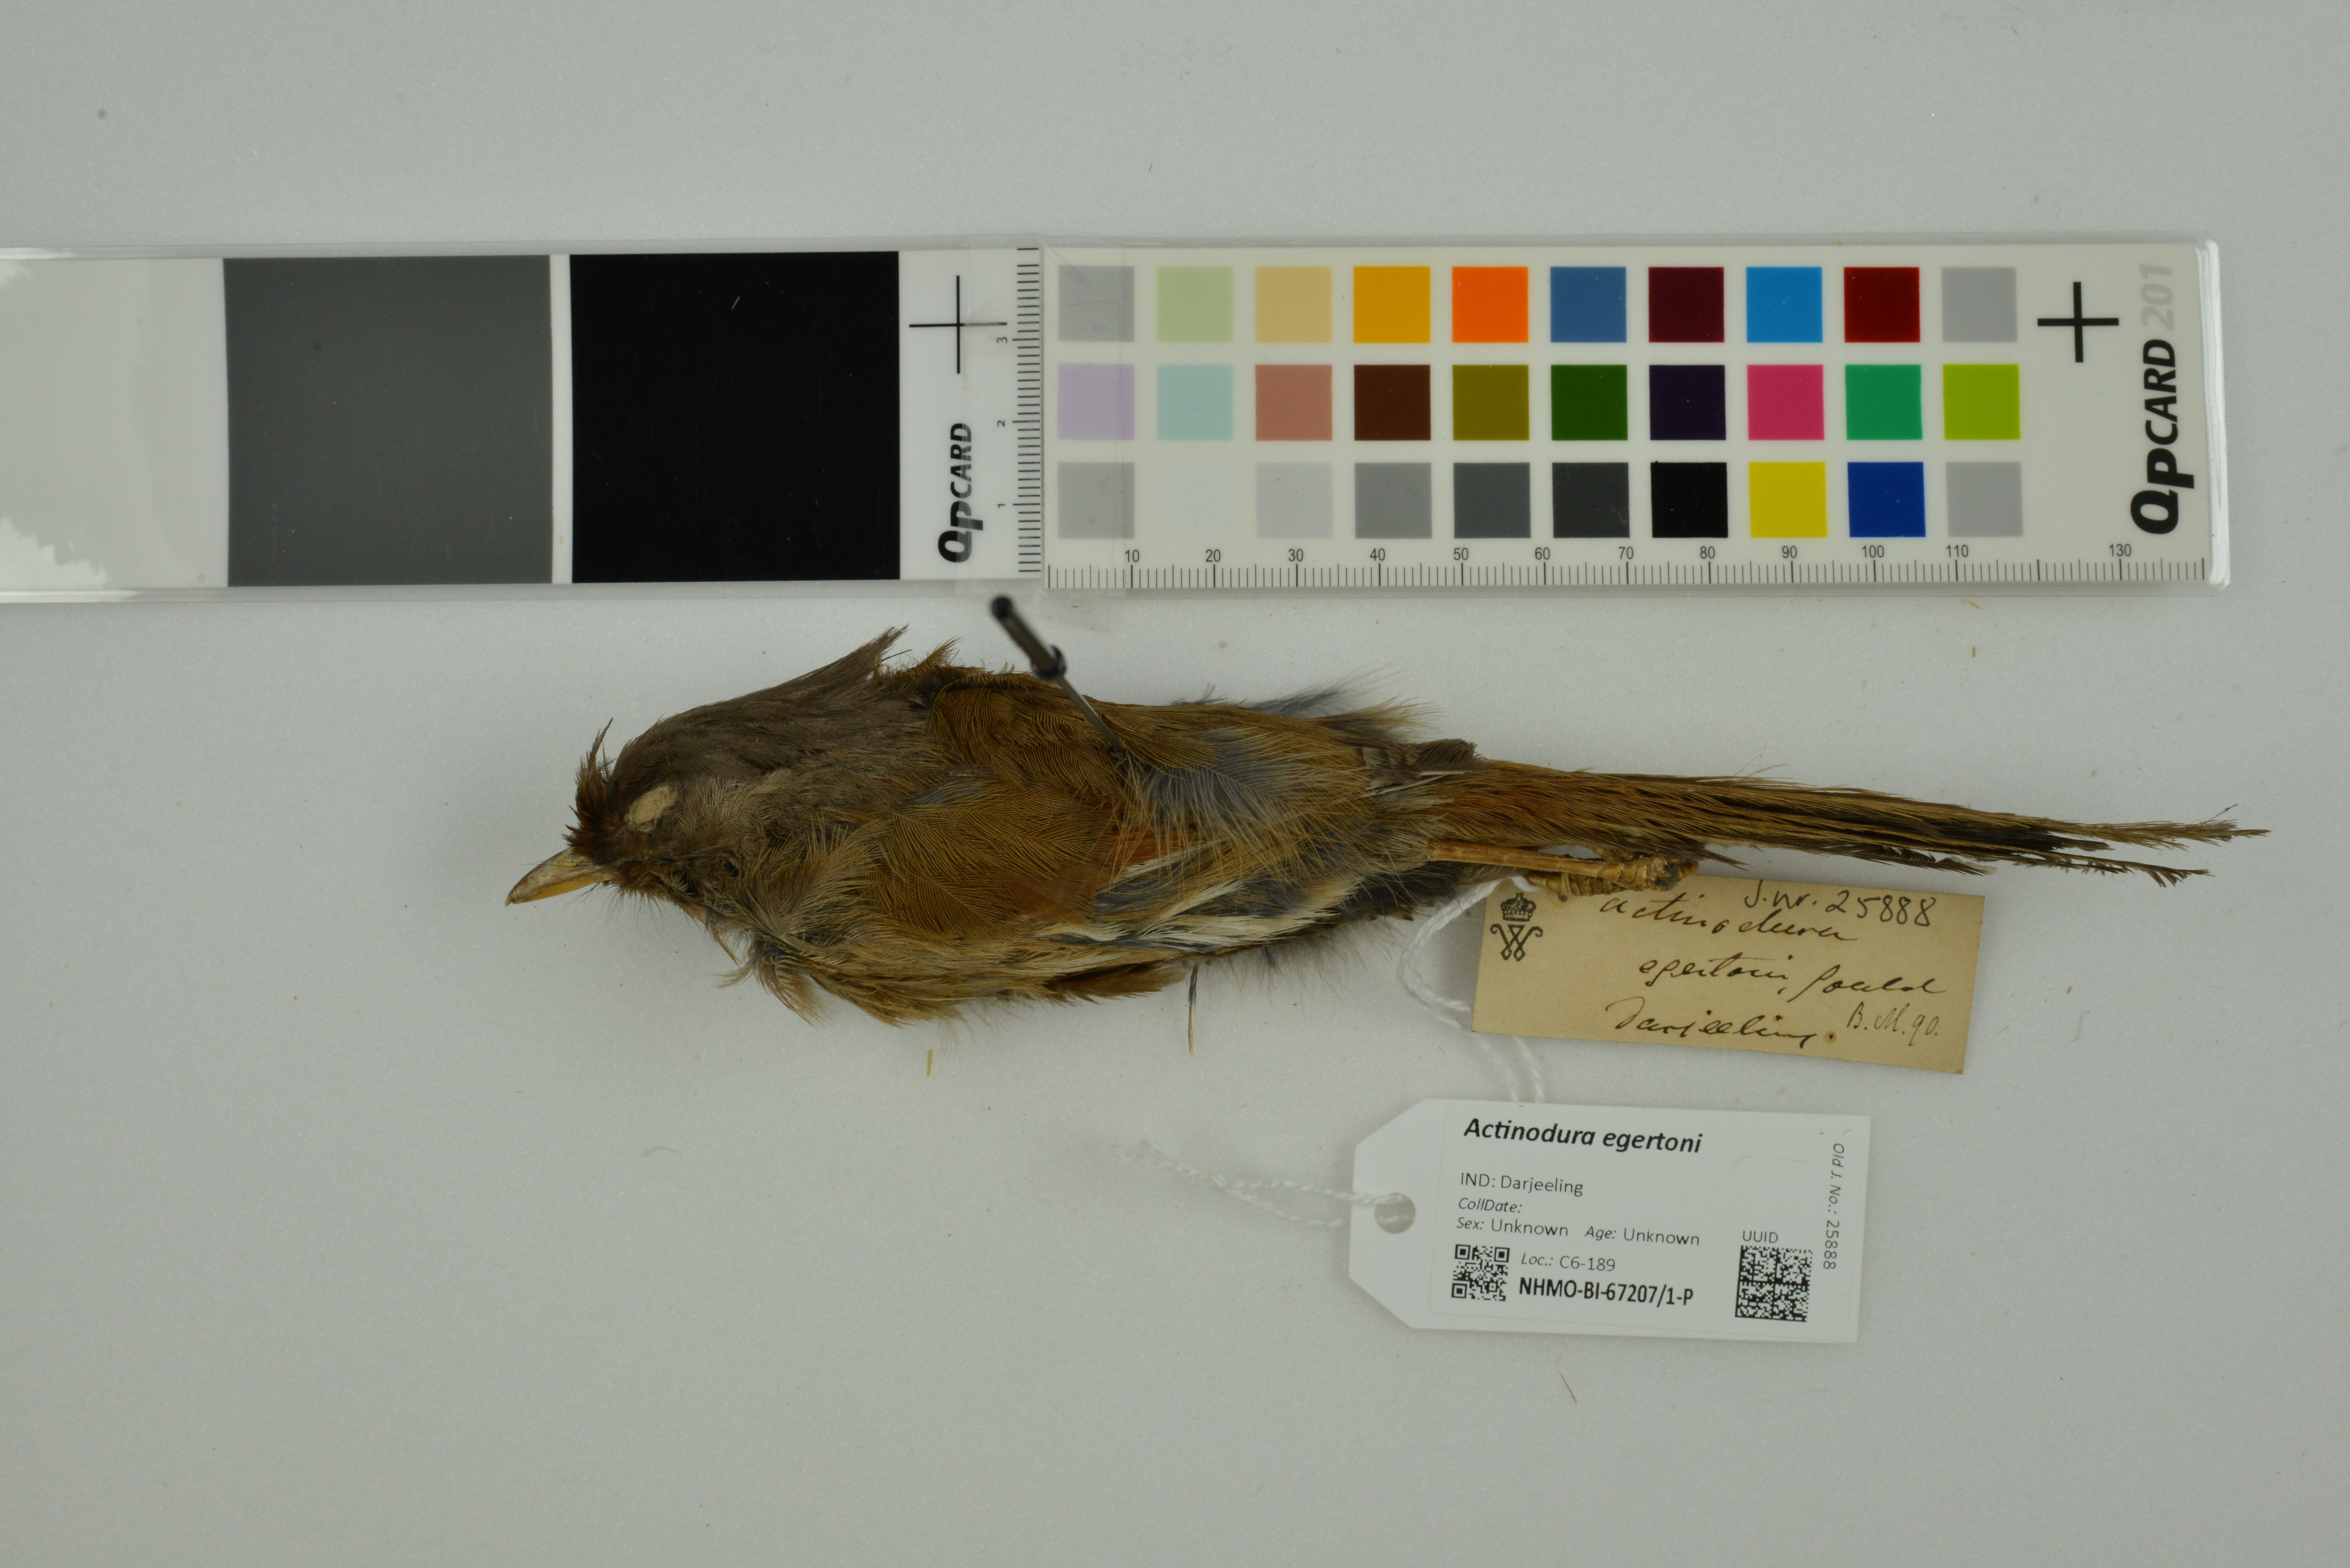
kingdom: Animalia
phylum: Chordata
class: Aves
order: Passeriformes
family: Leiothrichidae
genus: Actinodura
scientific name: Actinodura egertoni
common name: Rusty-fronted barwing
